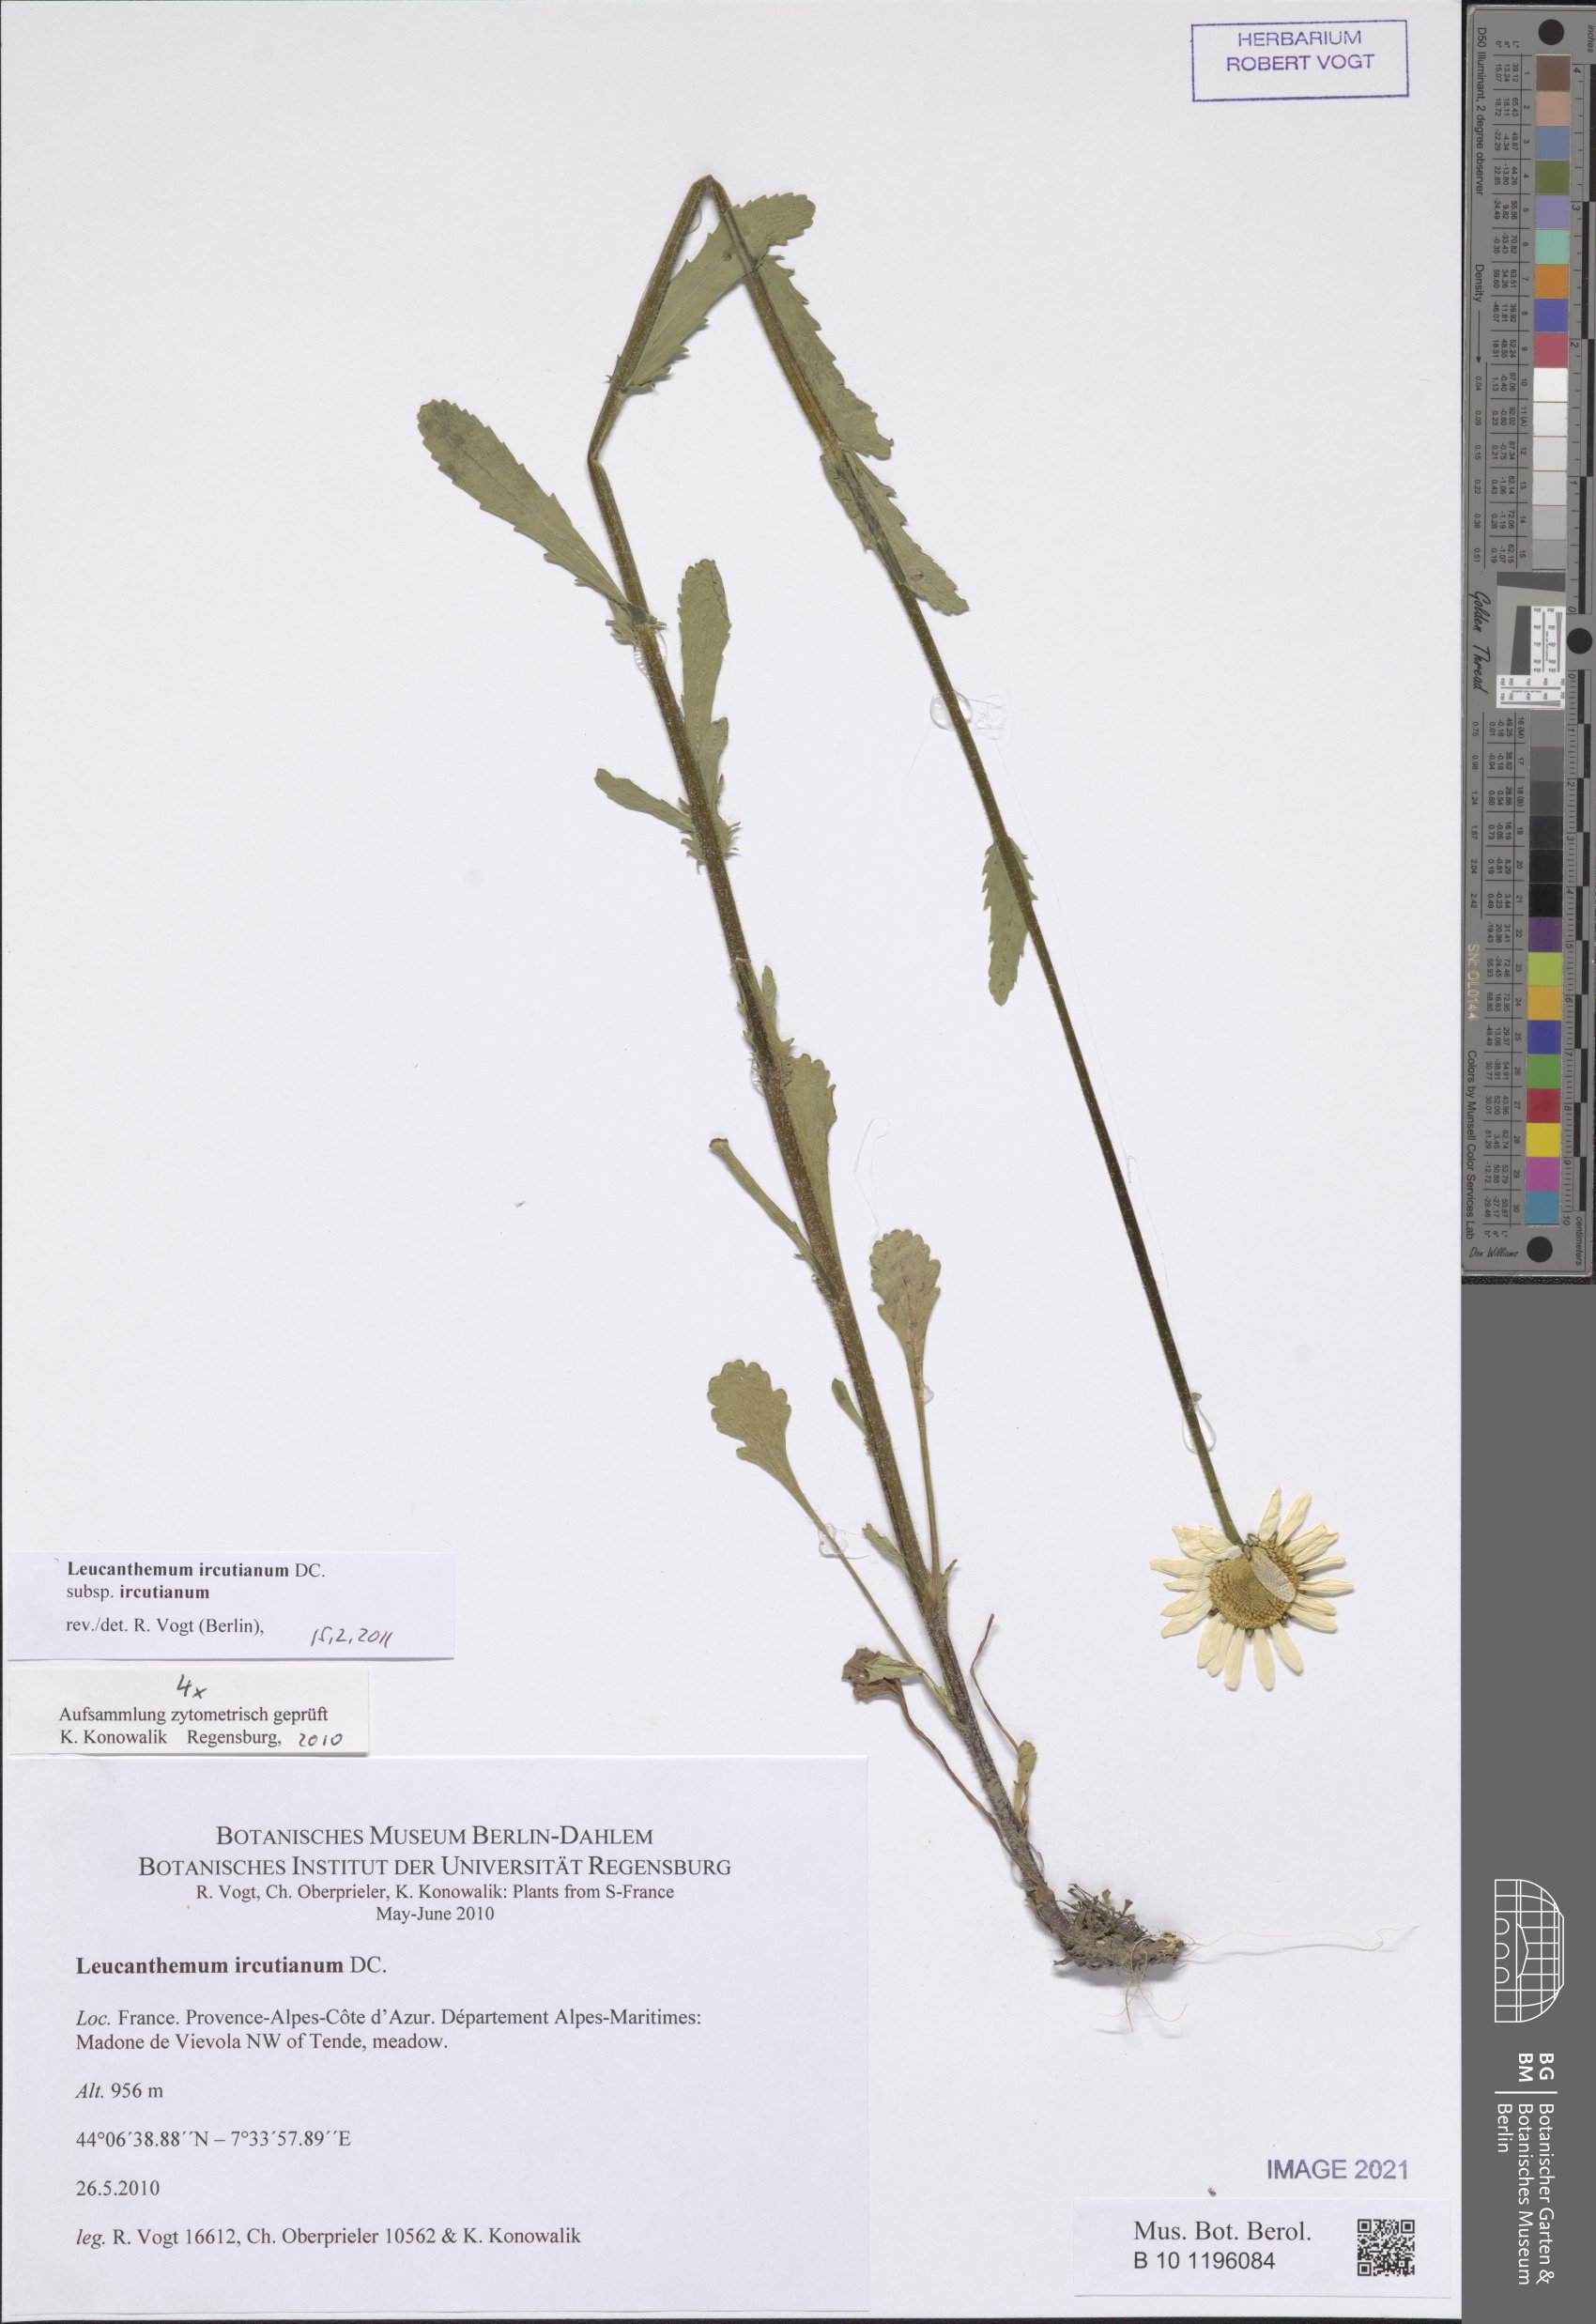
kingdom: Plantae
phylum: Tracheophyta
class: Magnoliopsida
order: Asterales
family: Asteraceae
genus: Leucanthemum
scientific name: Leucanthemum ircutianum
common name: Daisy
